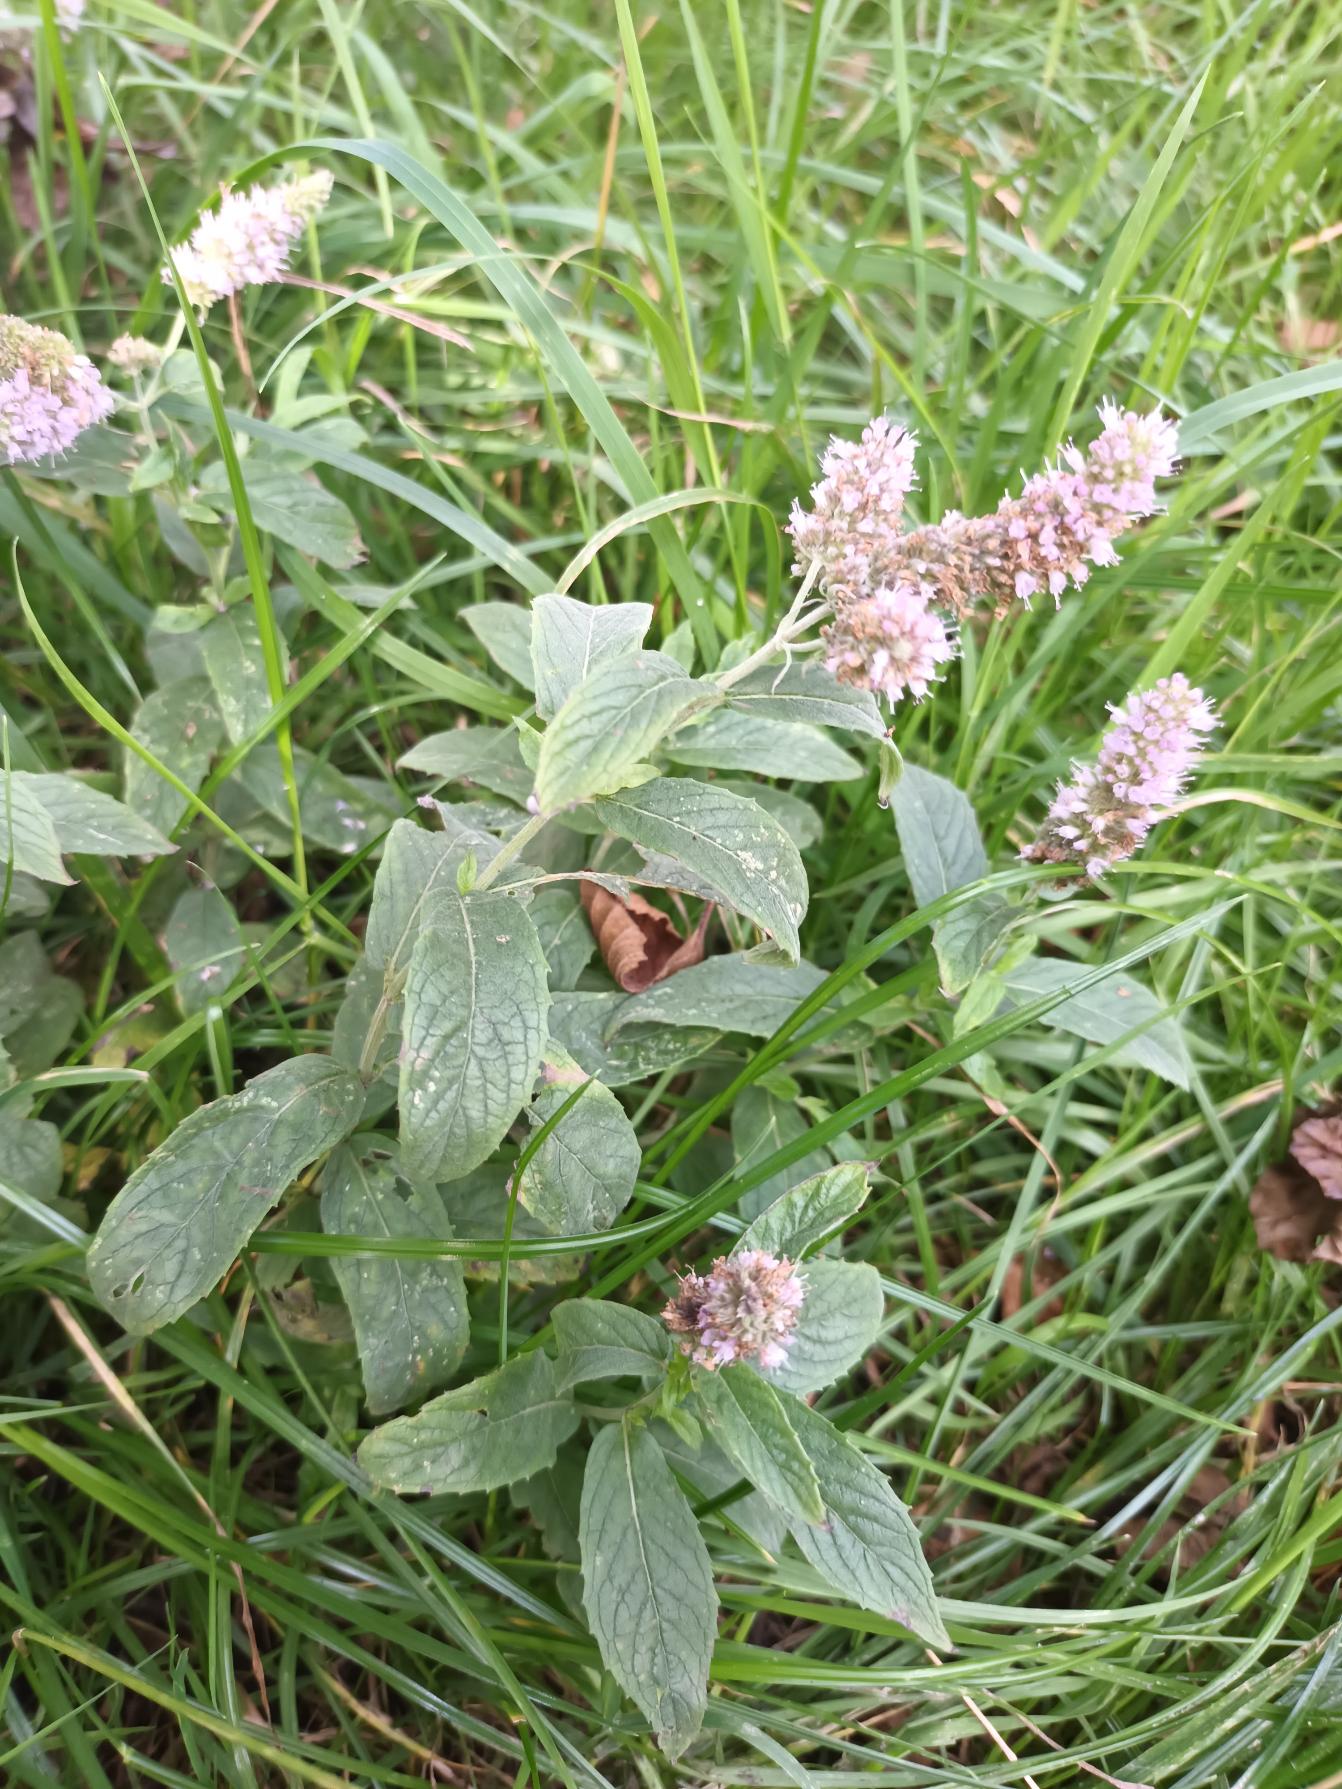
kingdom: Plantae
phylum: Tracheophyta
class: Magnoliopsida
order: Lamiales
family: Lamiaceae
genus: Mentha
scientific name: Mentha longifolia
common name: Grå mynte
